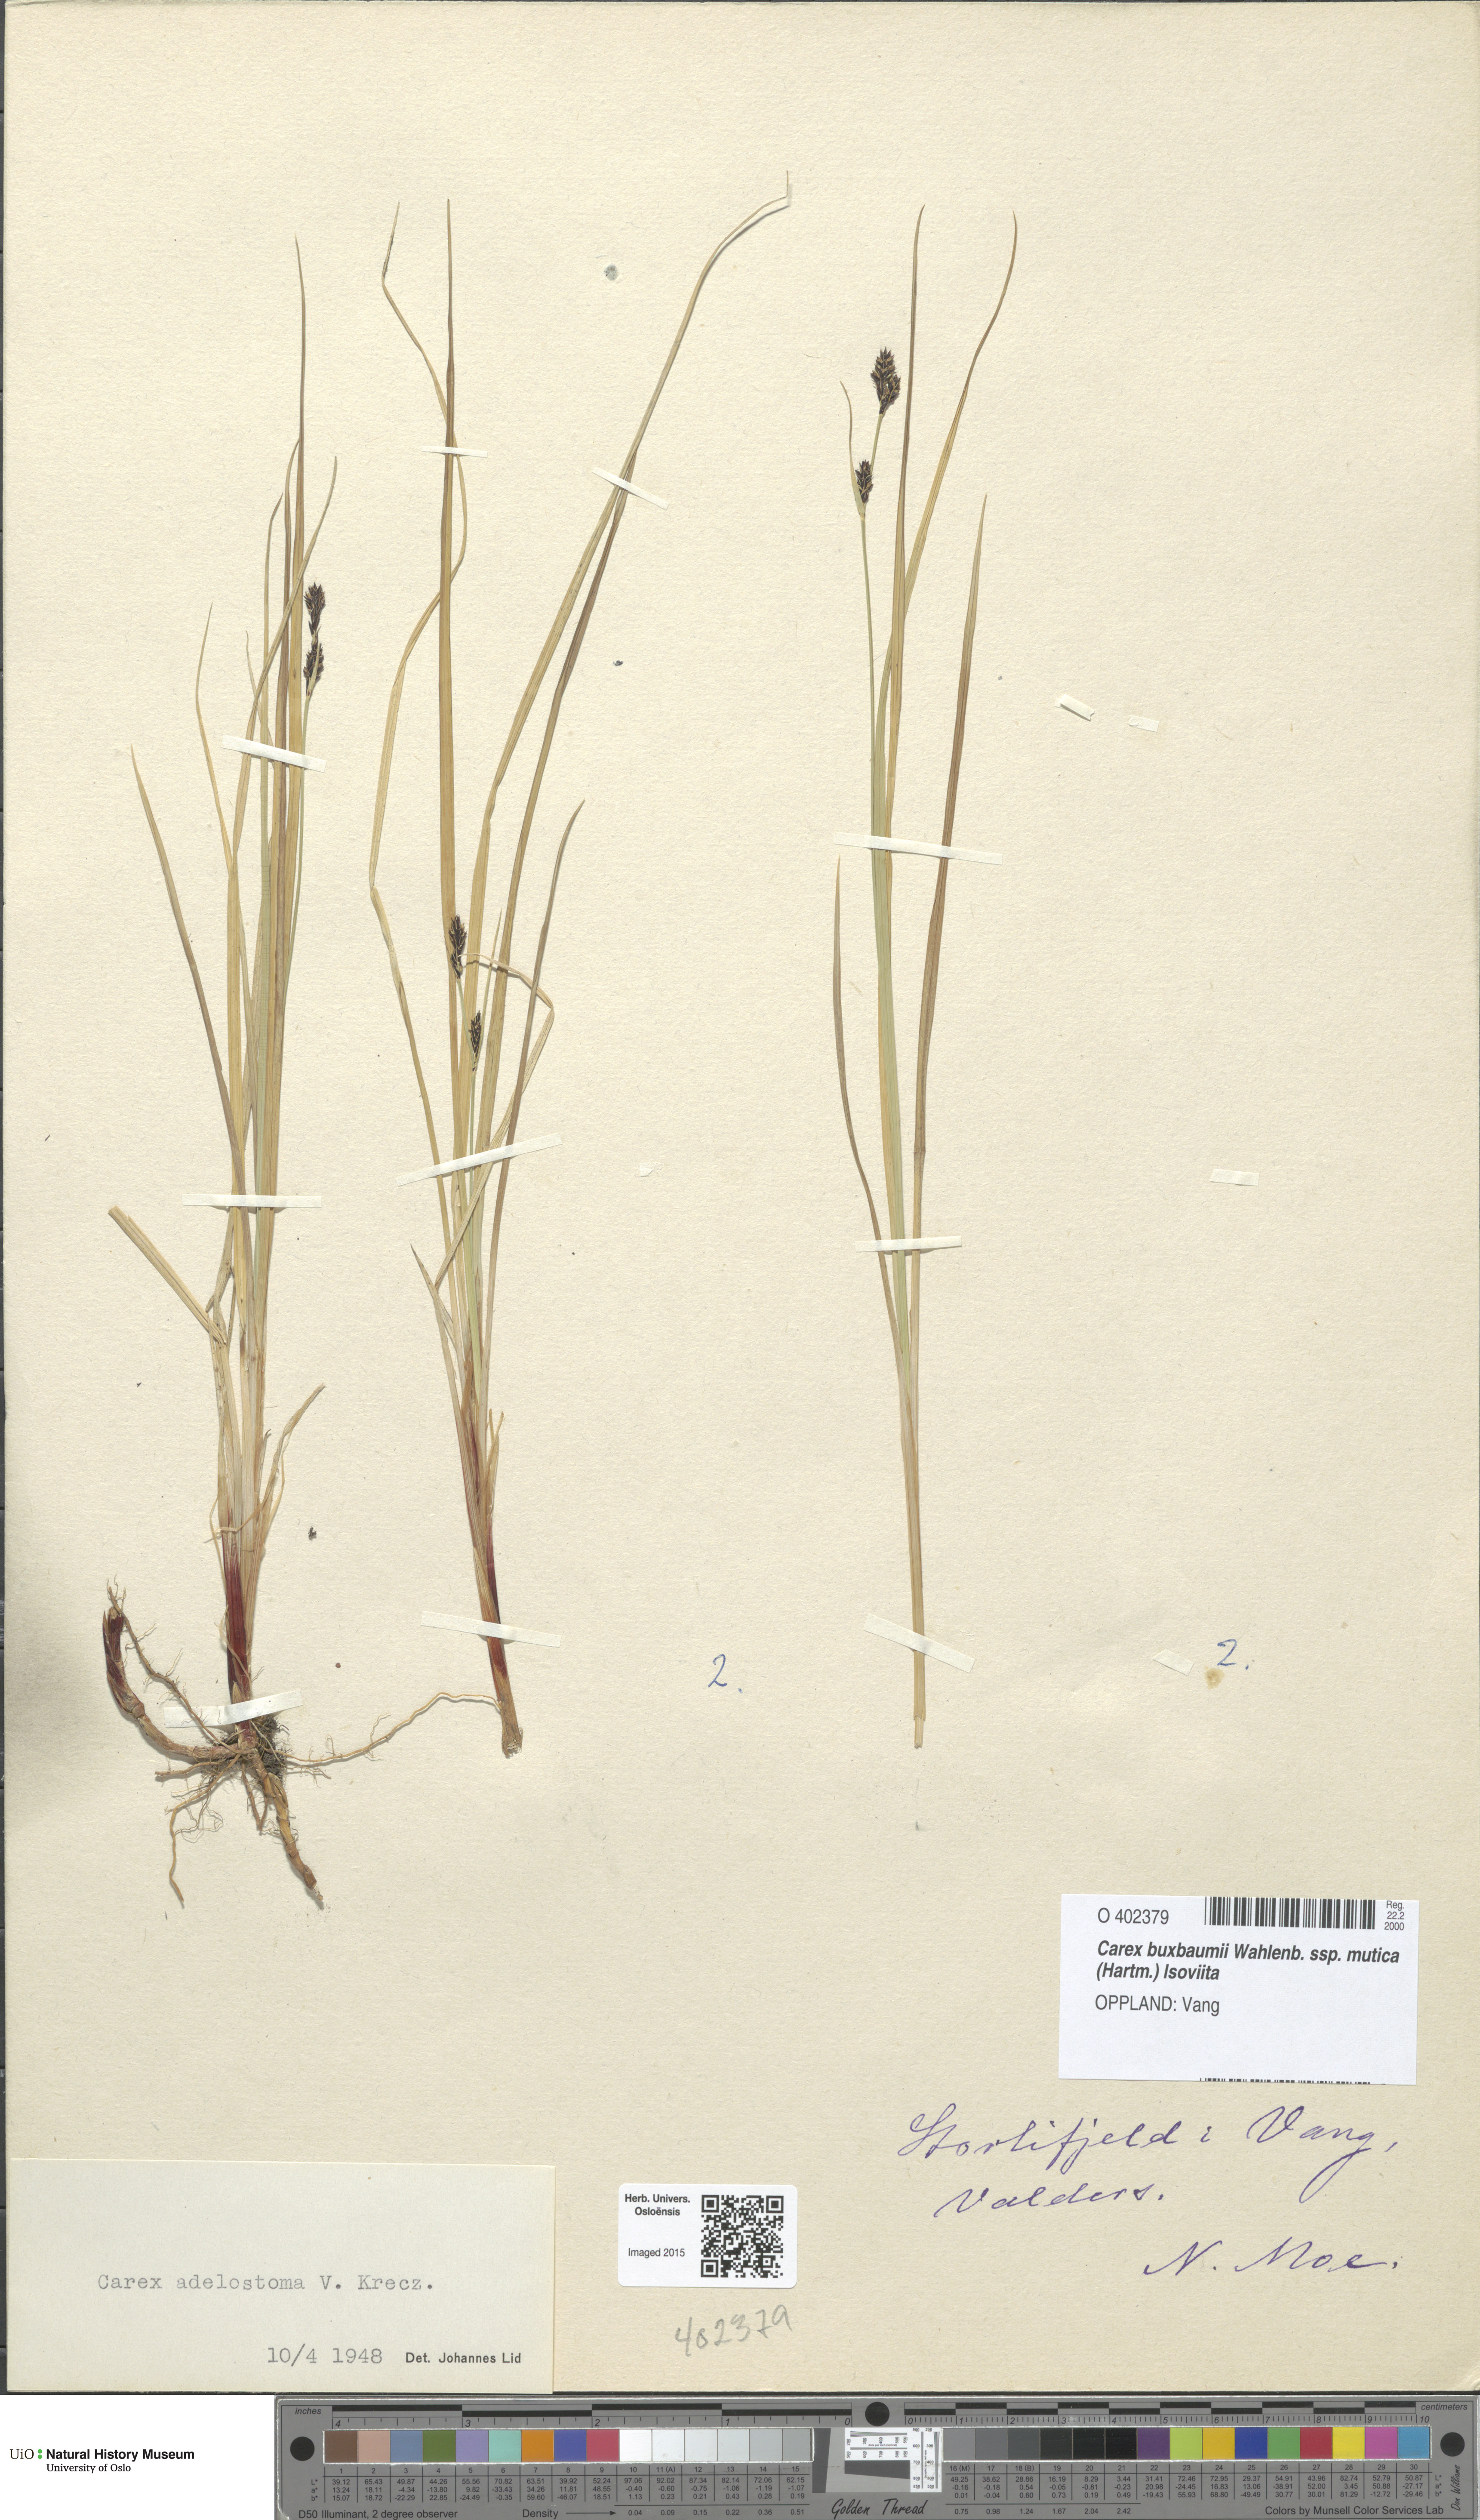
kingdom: Plantae
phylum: Tracheophyta
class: Liliopsida
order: Poales
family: Cyperaceae
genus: Carex
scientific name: Carex adelostoma
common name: Circumpolar sedge
